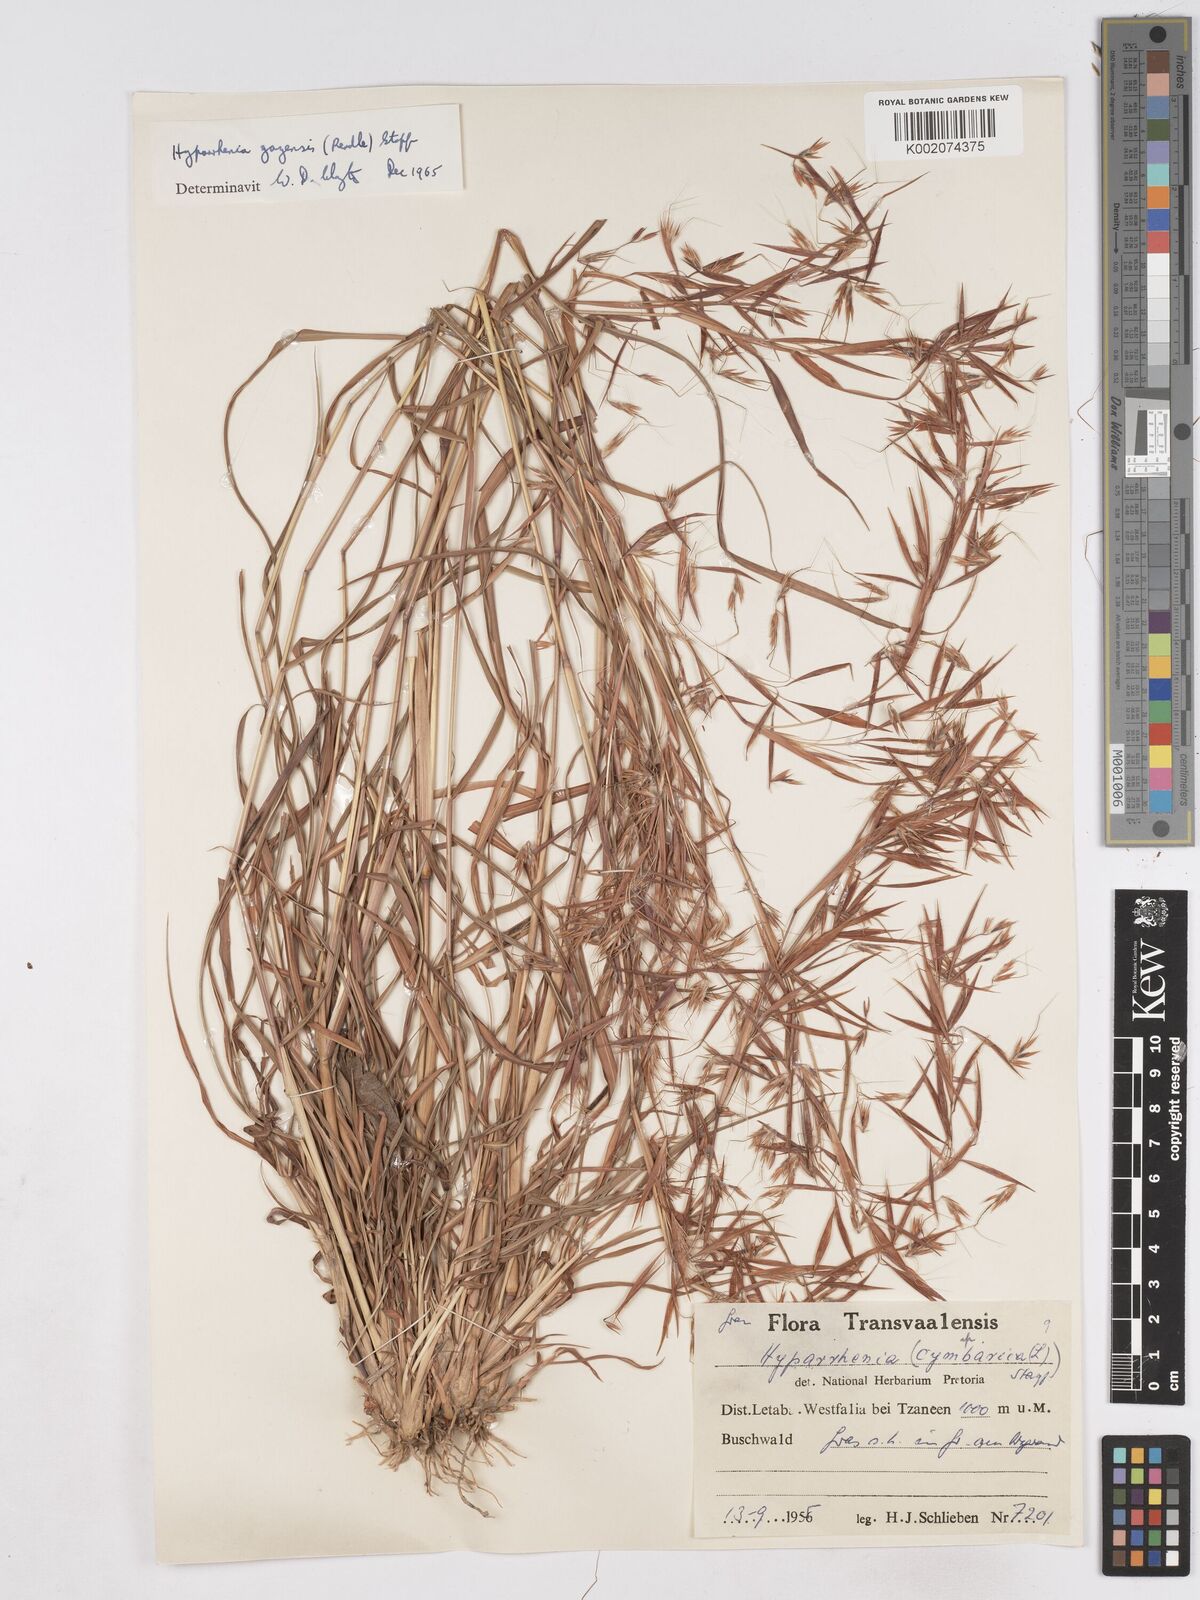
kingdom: Plantae
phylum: Tracheophyta
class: Liliopsida
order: Poales
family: Poaceae
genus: Hyparrhenia
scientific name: Hyparrhenia gazensis
